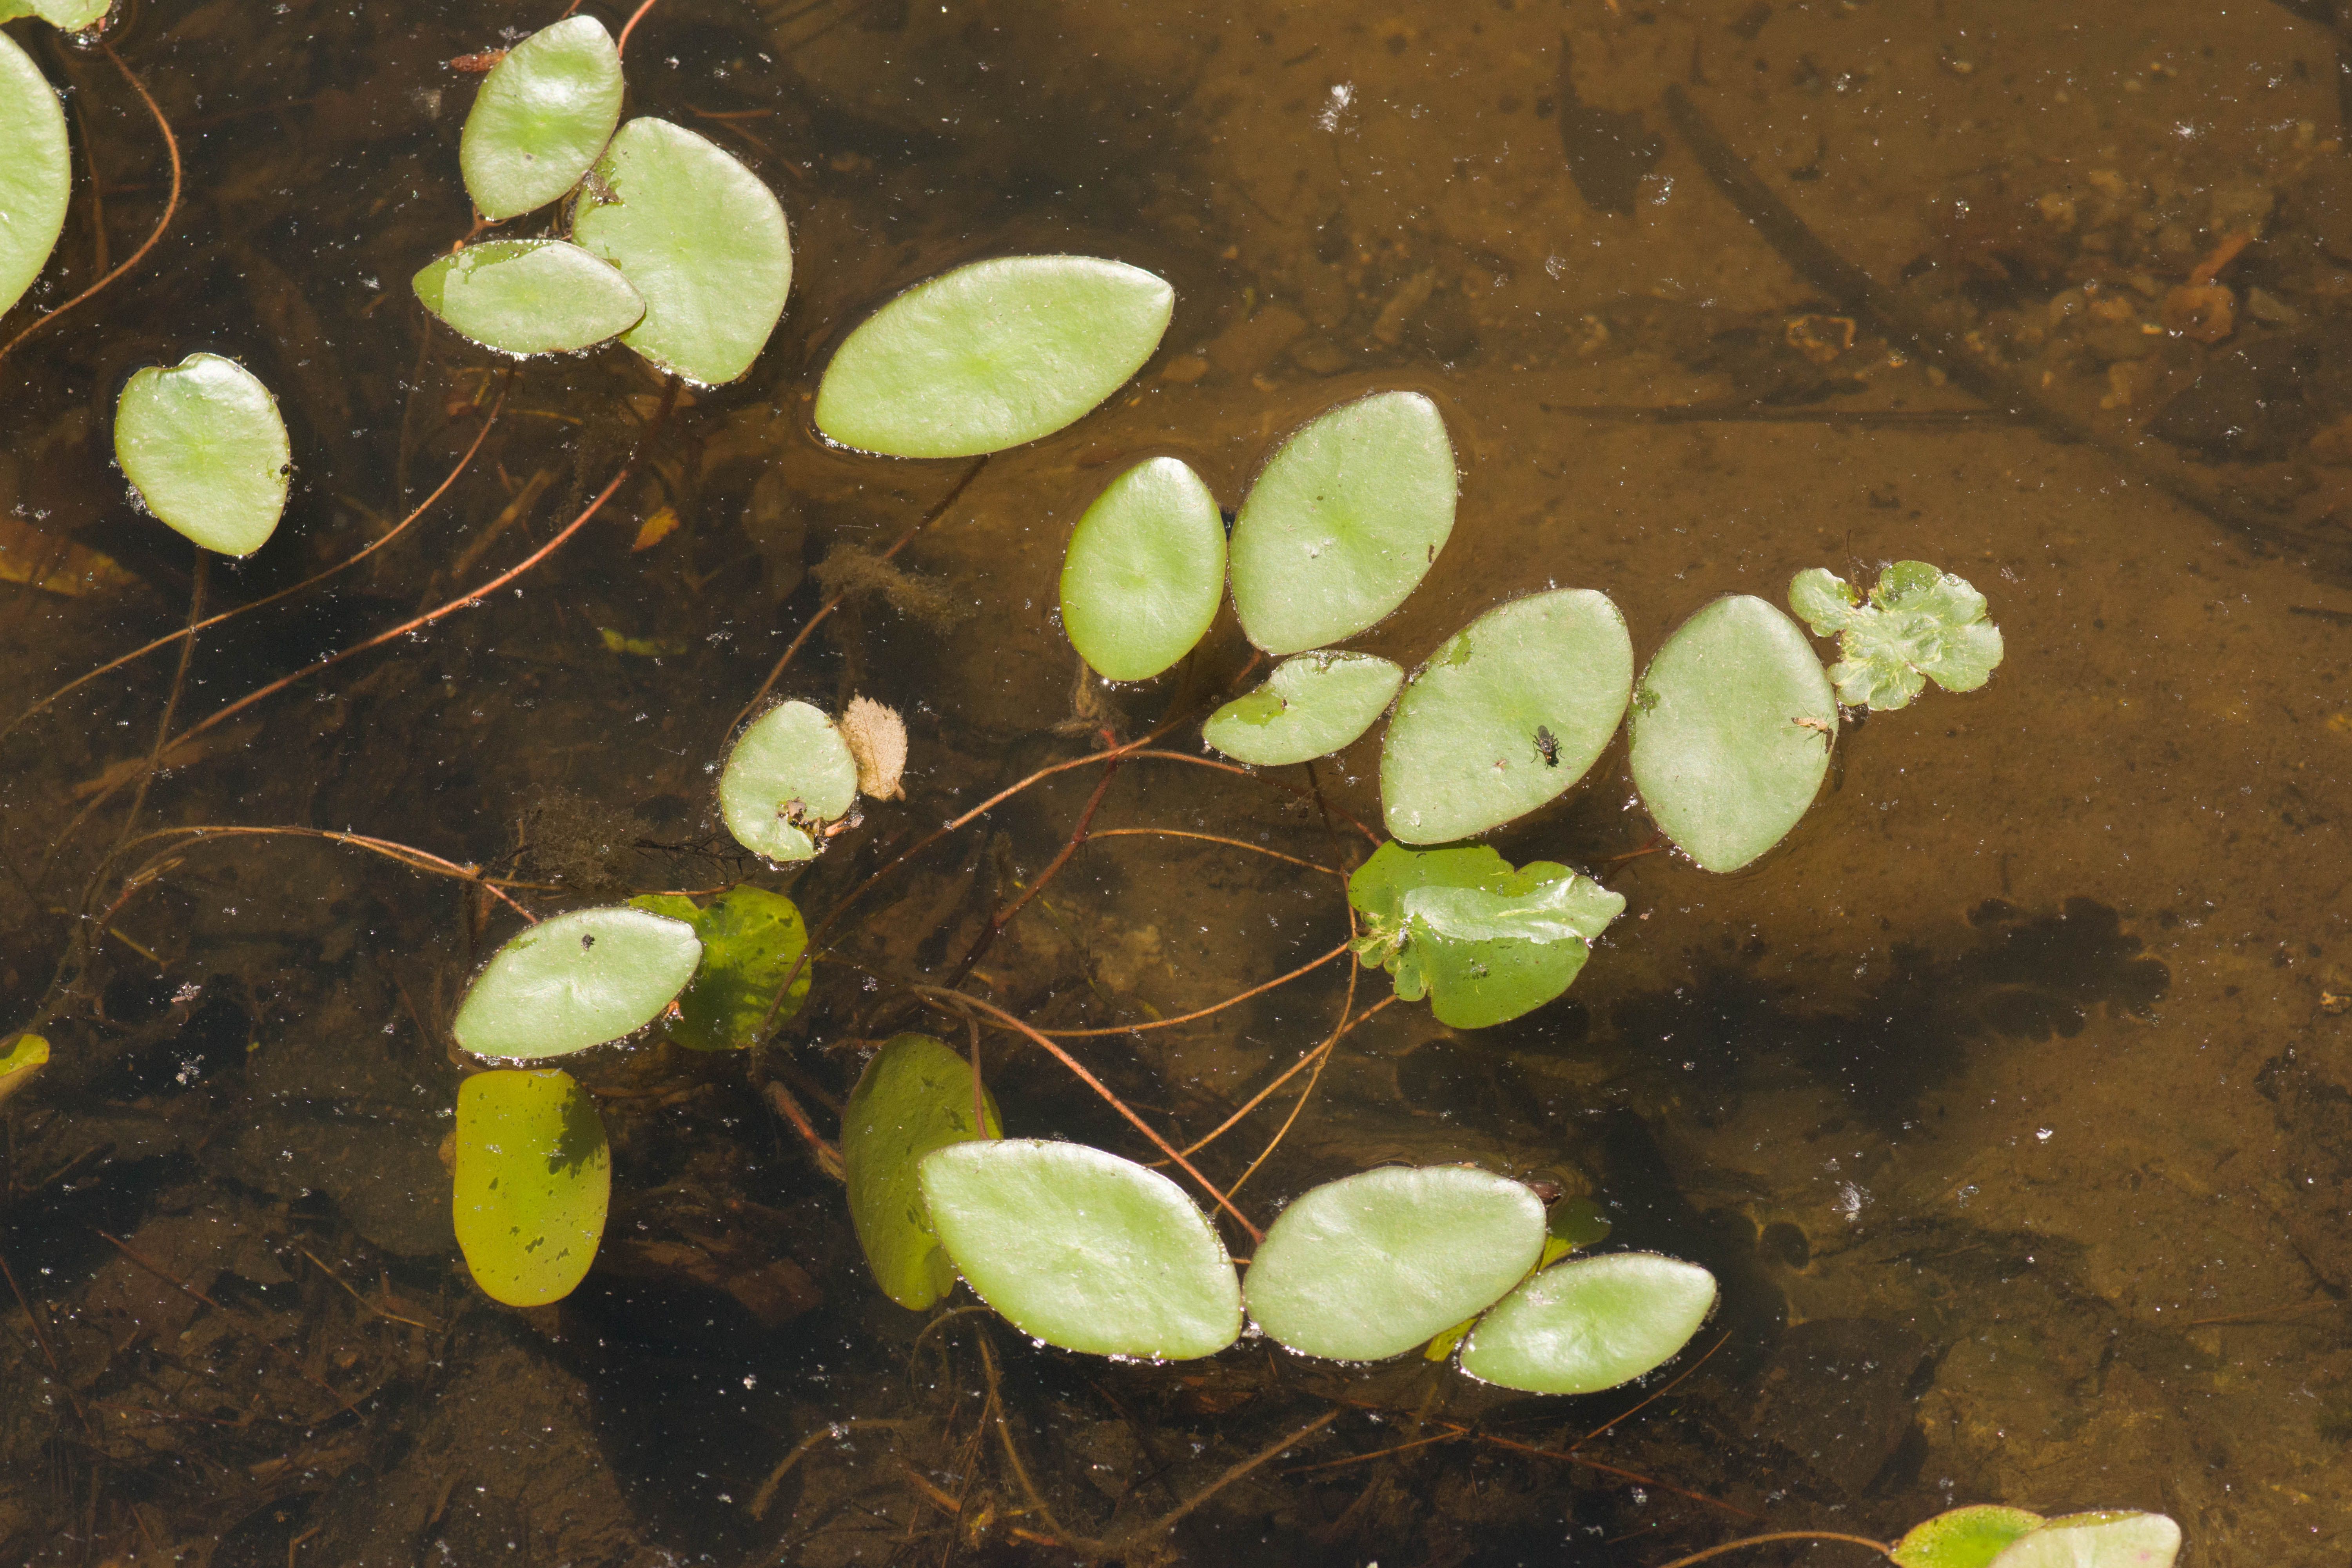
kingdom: Plantae
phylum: Tracheophyta
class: Magnoliopsida
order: Nymphaeales
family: Cabombaceae
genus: Brasenia
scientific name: Brasenia schreberi
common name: Water-shield
